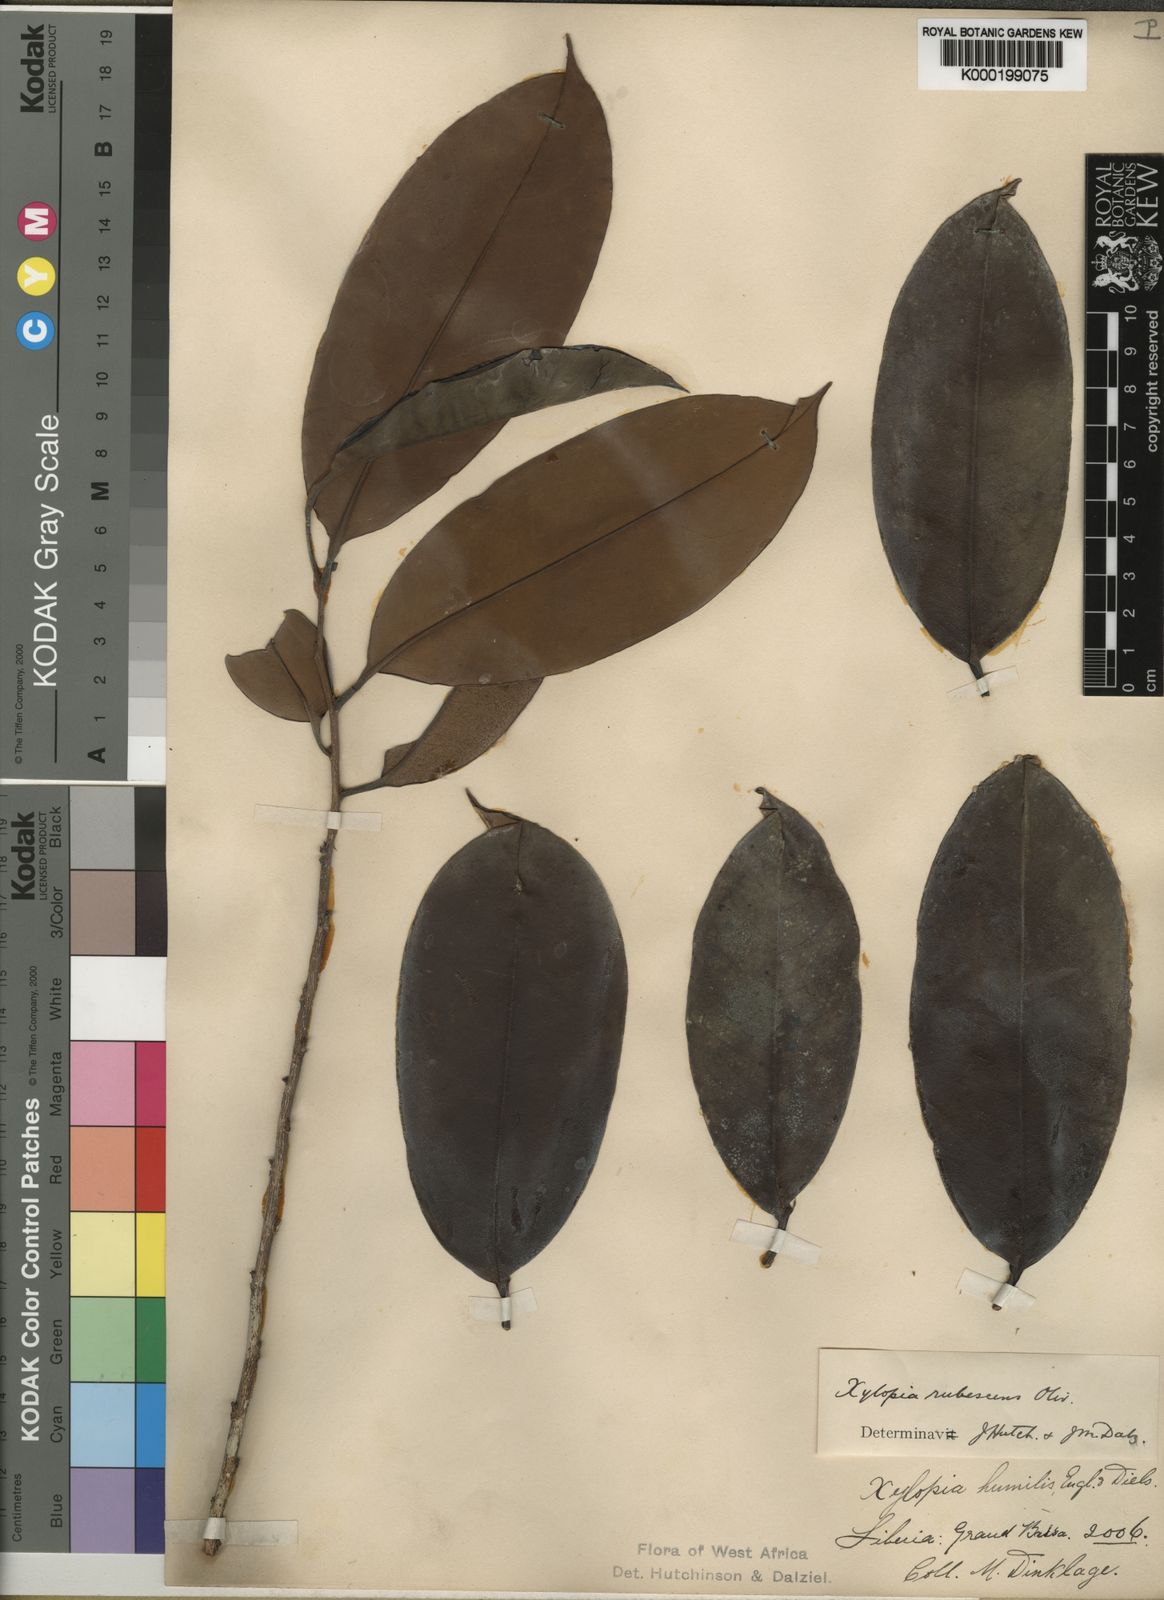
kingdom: Plantae
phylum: Tracheophyta
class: Magnoliopsida
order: Magnoliales
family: Annonaceae
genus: Xylopia
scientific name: Xylopia rubescens
